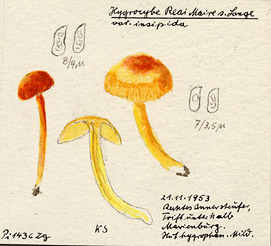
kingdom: Fungi
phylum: Basidiomycota
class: Agaricomycetes
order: Agaricales
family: Hygrophoraceae
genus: Hygrocybe
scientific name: Hygrocybe insipida
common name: Spangle waxcap
